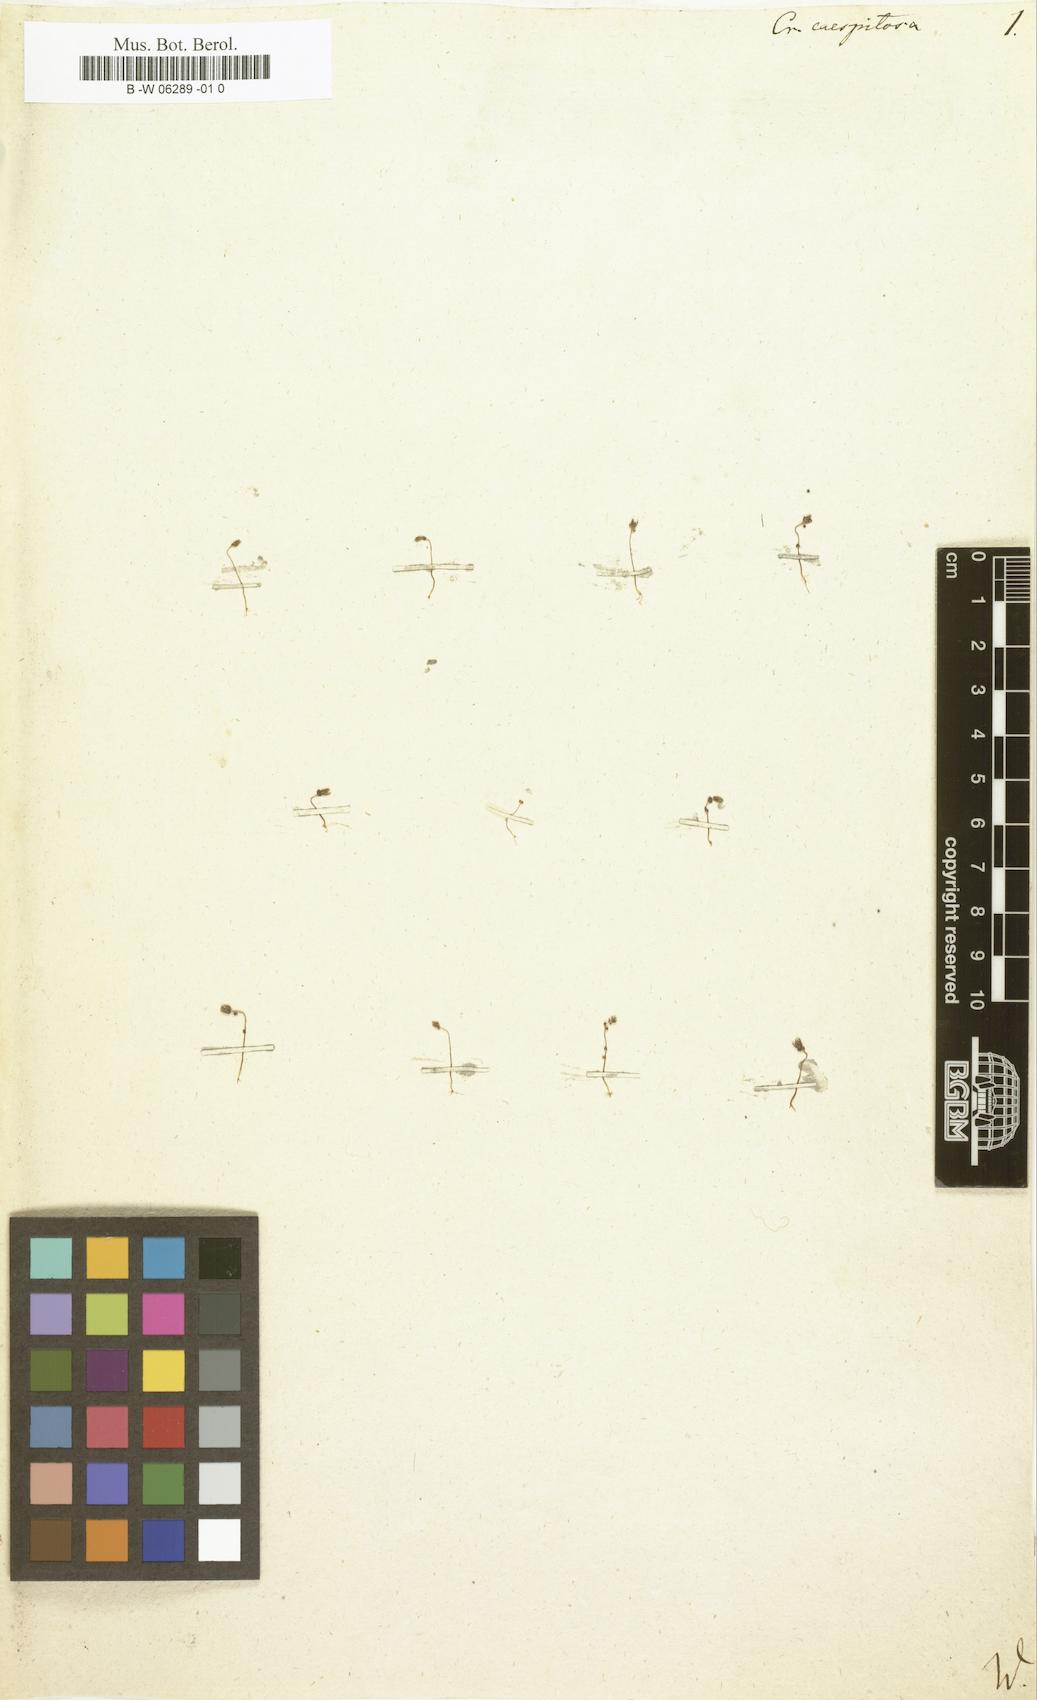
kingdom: Plantae
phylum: Tracheophyta
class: Magnoliopsida
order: Saxifragales
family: Crassulaceae
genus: Sedum
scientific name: Sedum cespitosum
